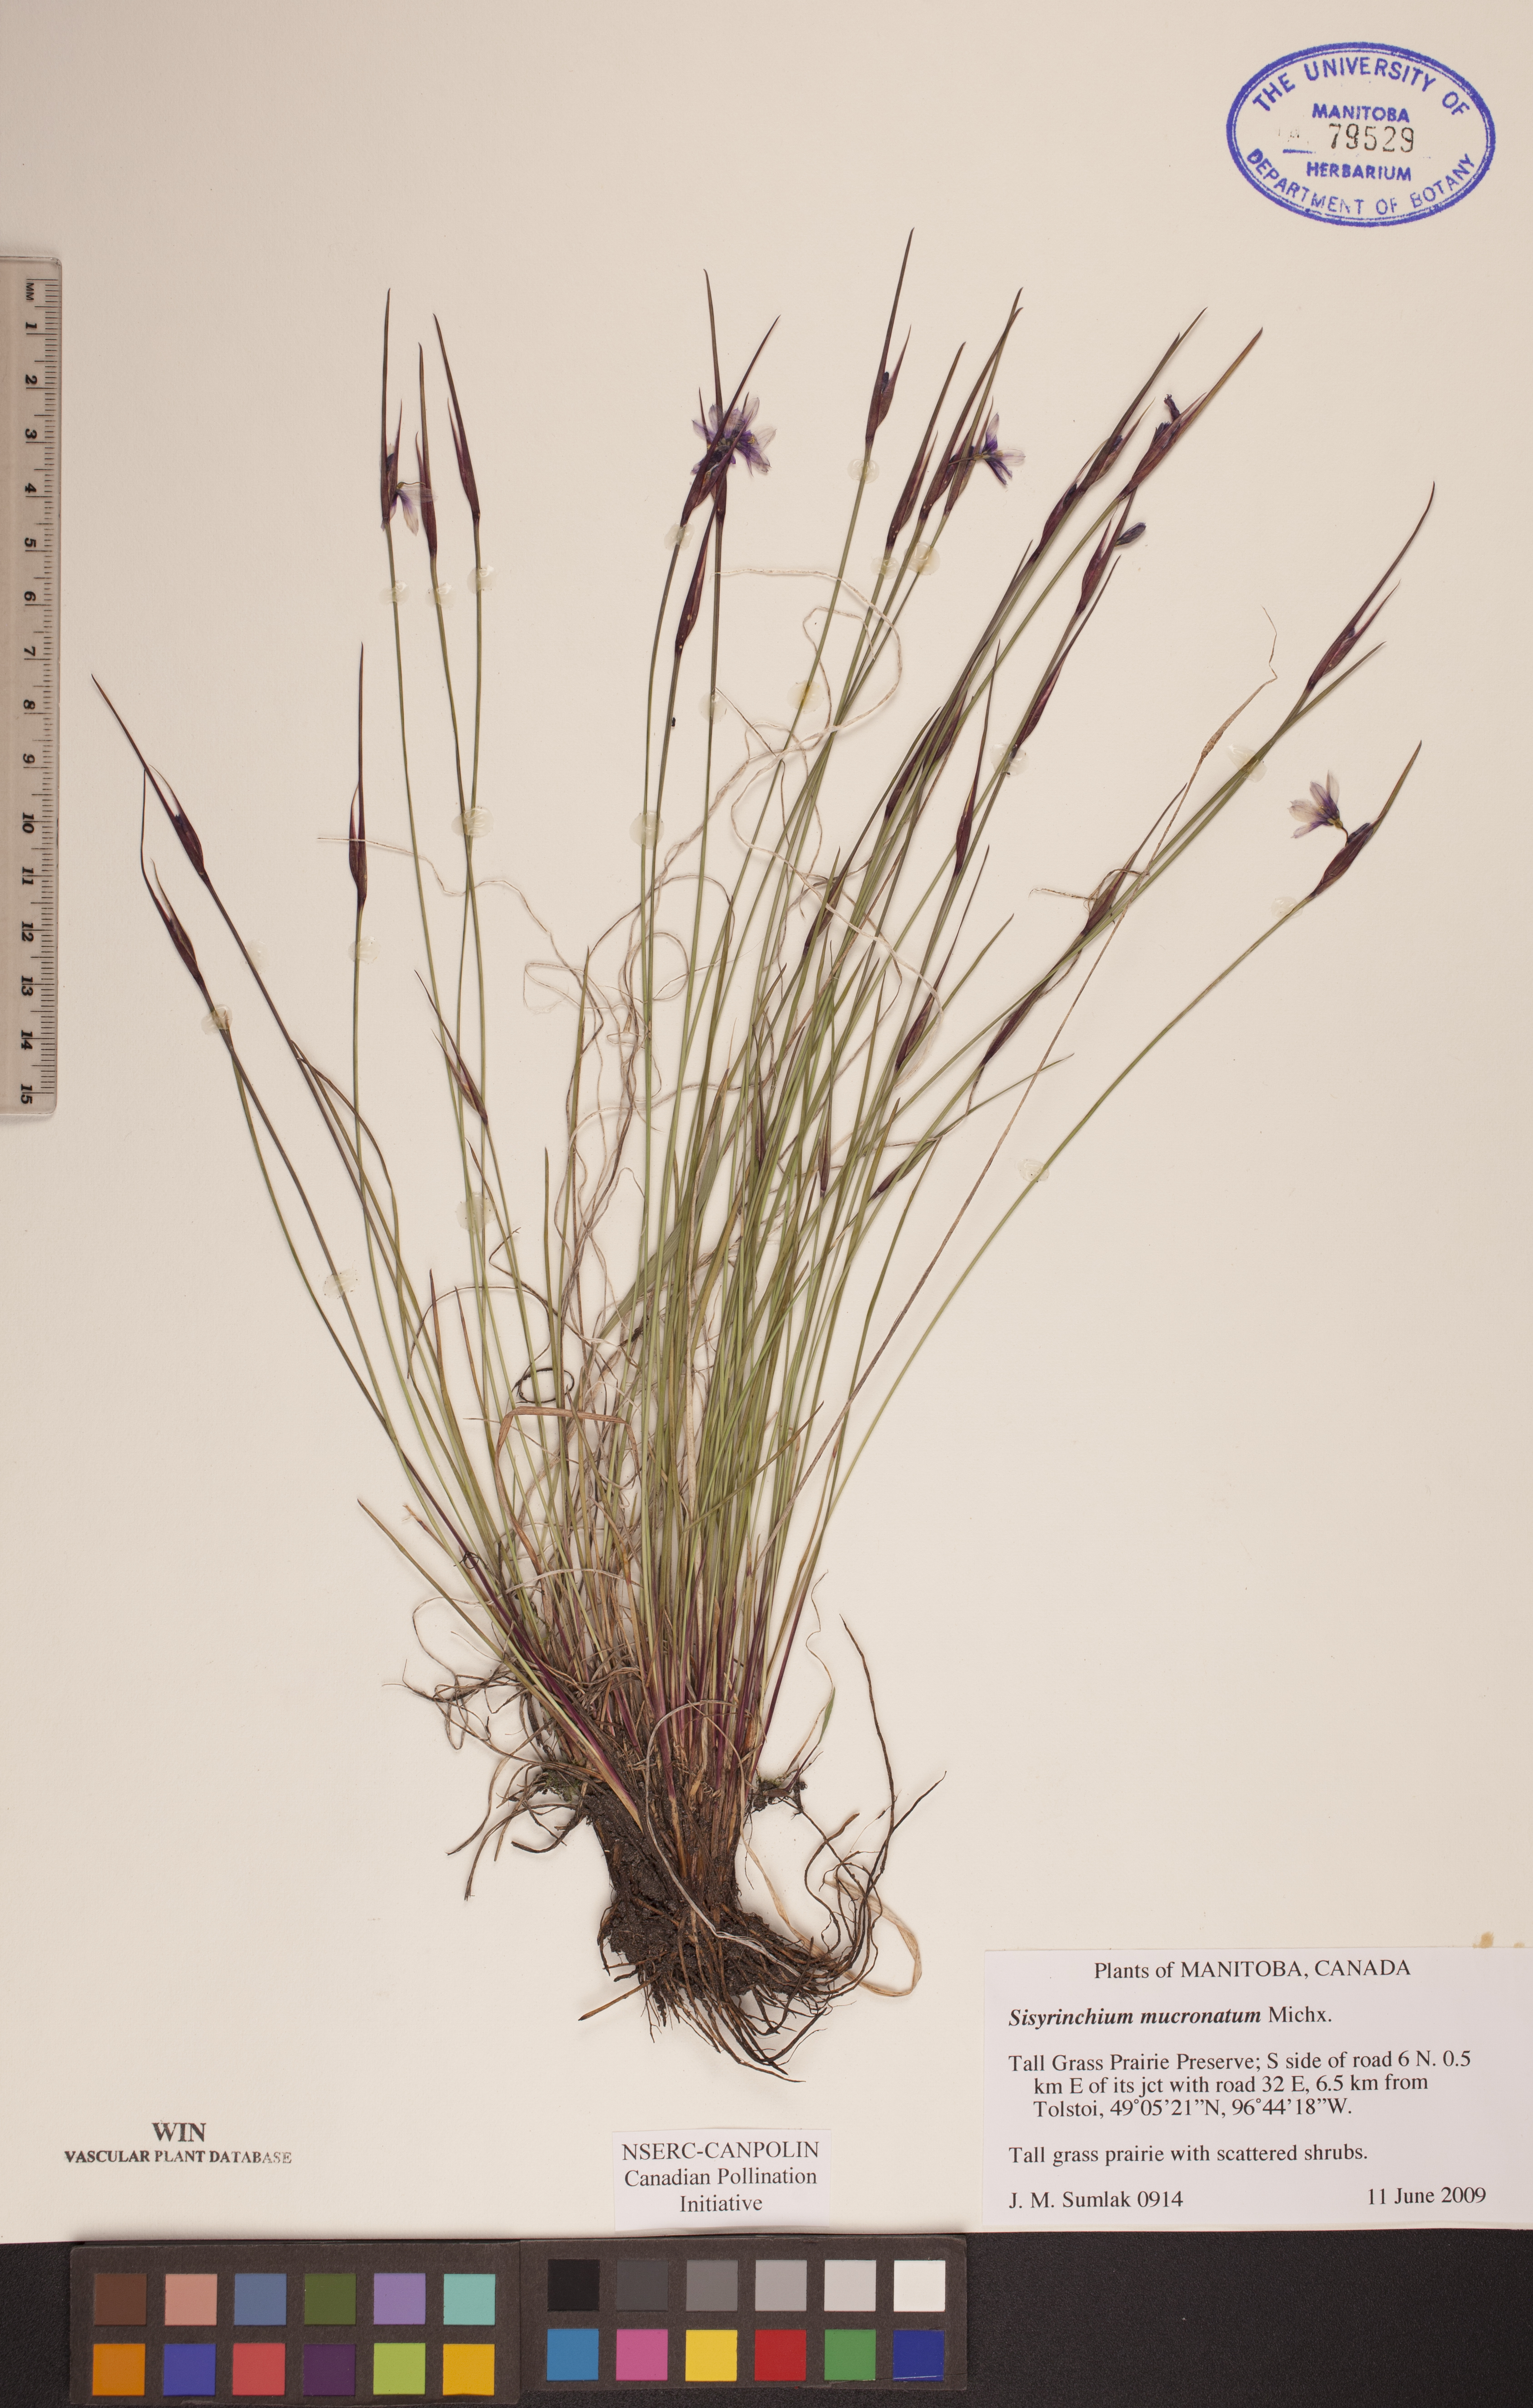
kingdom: Plantae
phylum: Tracheophyta
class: Liliopsida
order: Asparagales
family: Iridaceae
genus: Sisyrinchium
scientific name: Sisyrinchium mucronatum
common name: Eastern blue-eyed-grass
